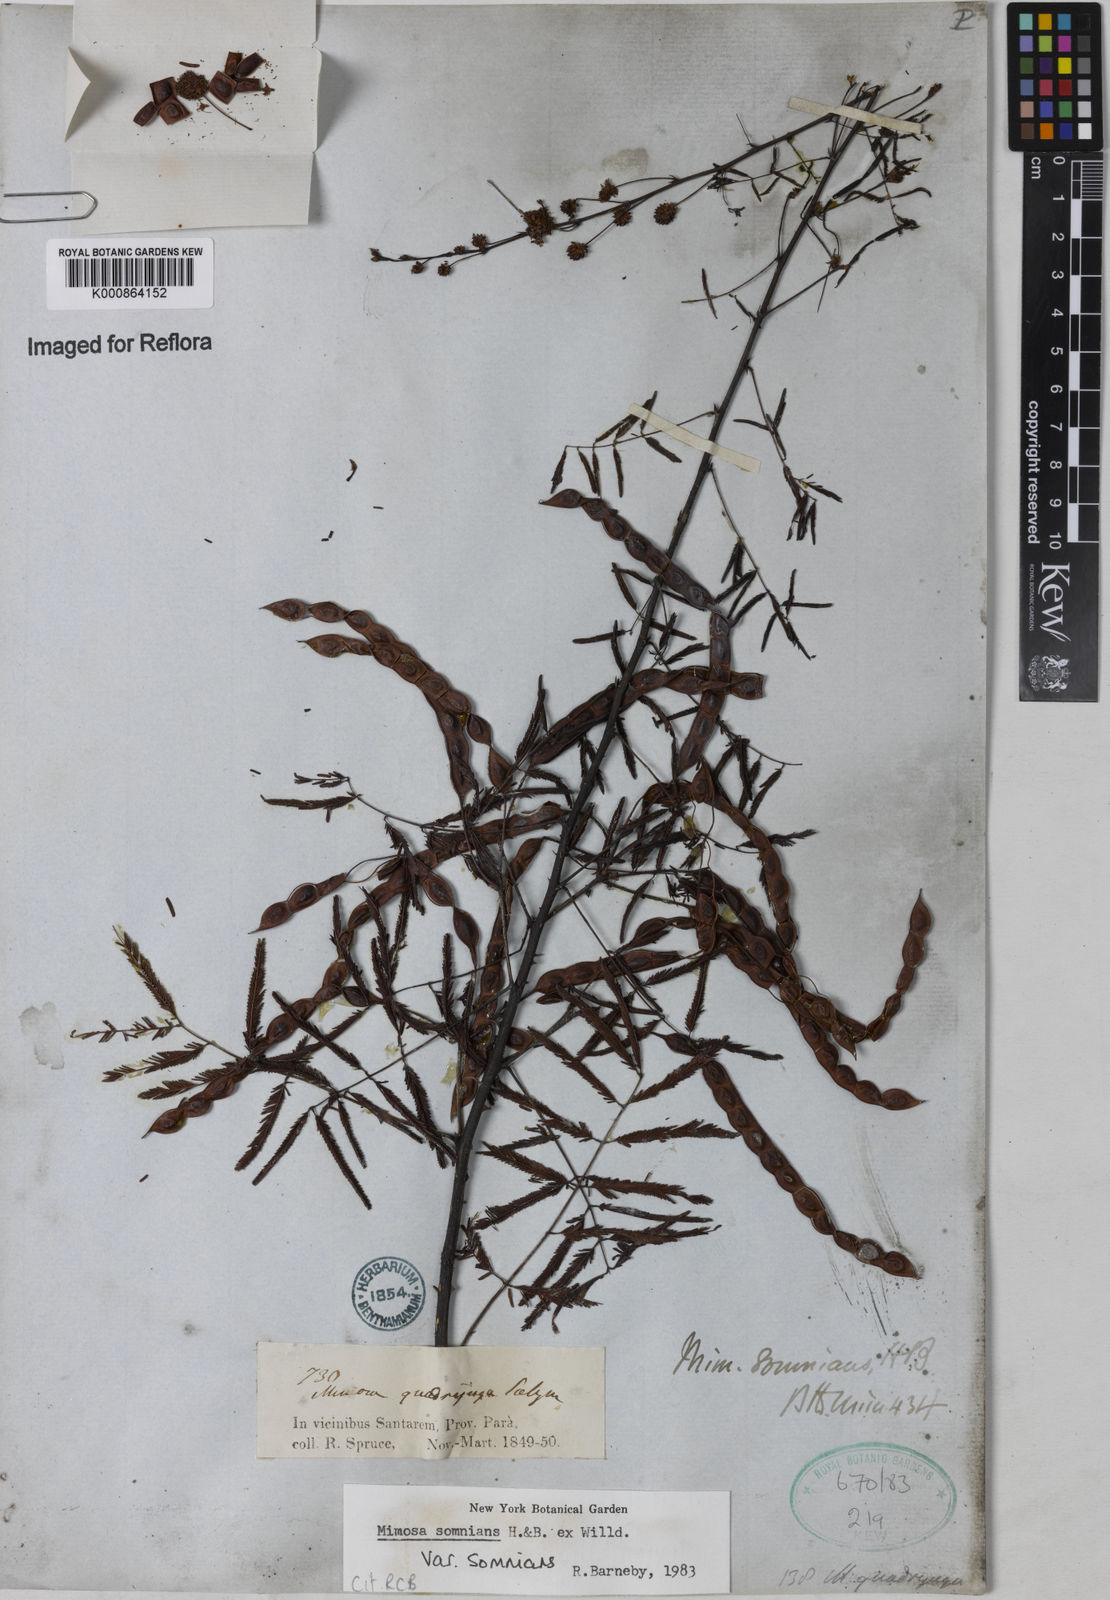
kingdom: Plantae
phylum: Tracheophyta
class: Magnoliopsida
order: Fabales
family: Fabaceae
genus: Mimosa
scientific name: Mimosa somnians
